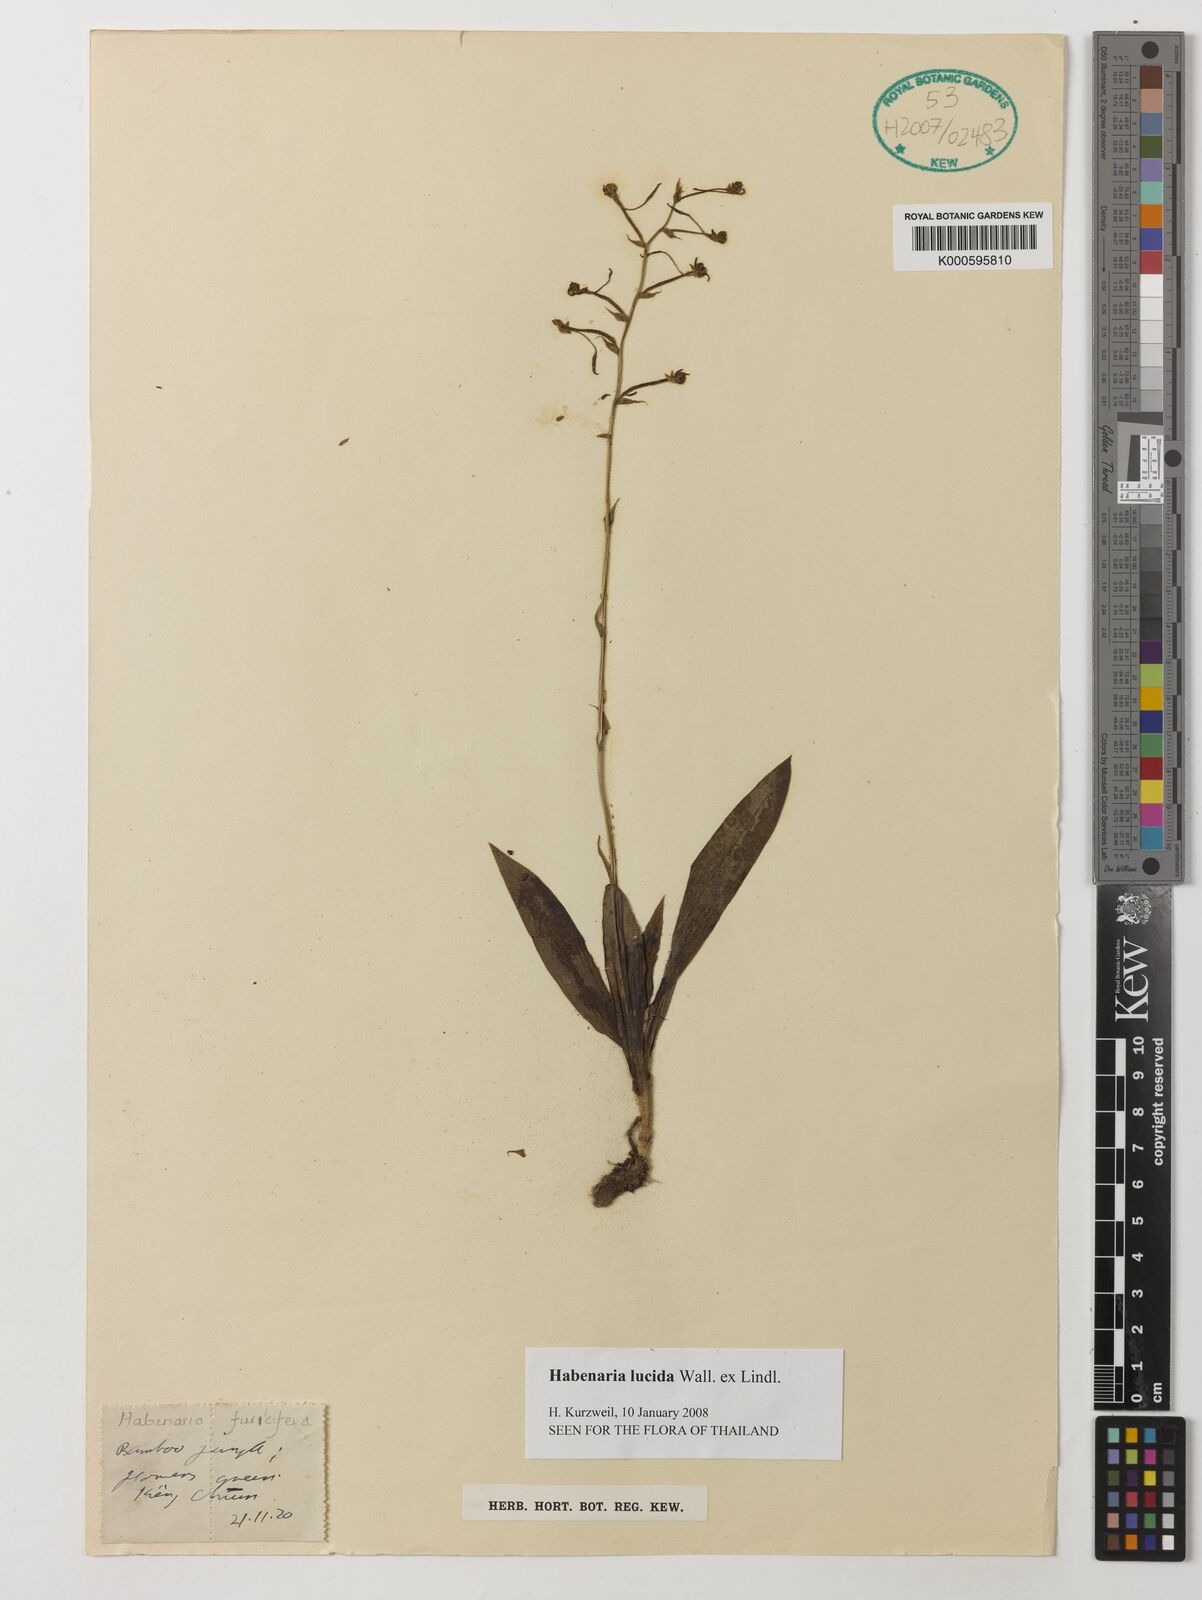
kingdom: Plantae
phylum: Tracheophyta
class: Liliopsida
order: Asparagales
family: Orchidaceae
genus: Habenaria
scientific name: Habenaria lucida
